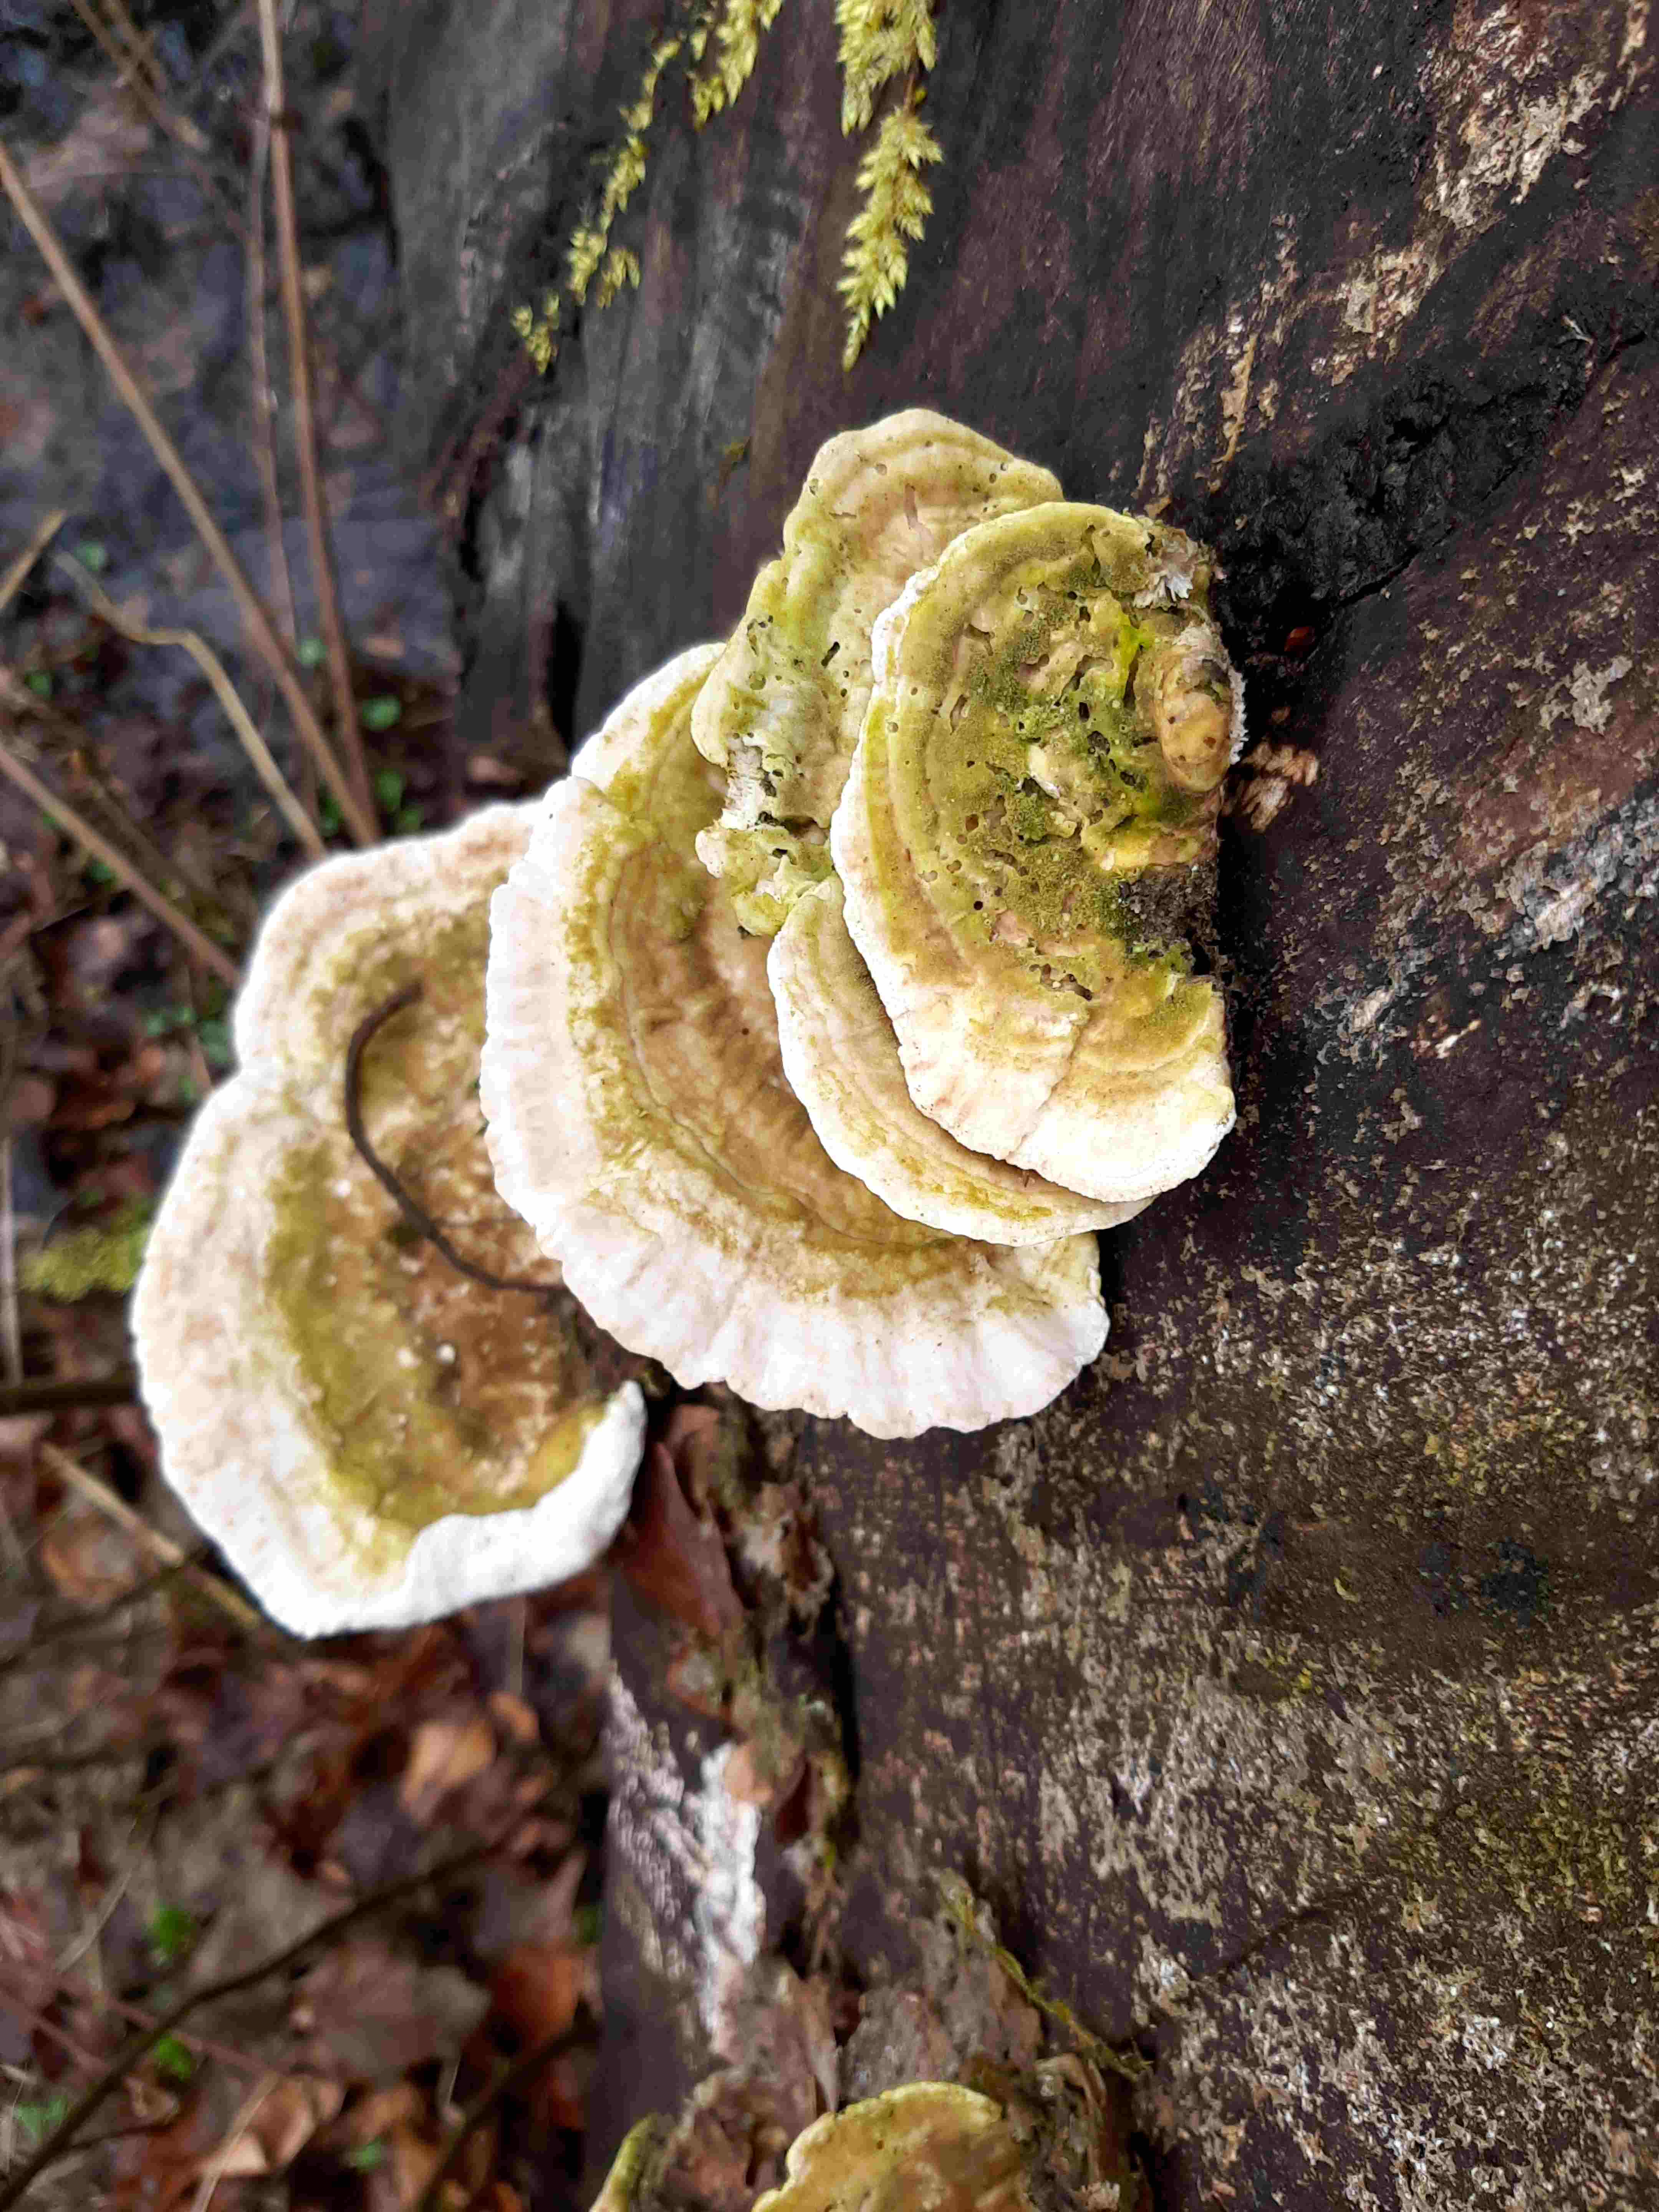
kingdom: Fungi
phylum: Basidiomycota
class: Agaricomycetes
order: Polyporales
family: Polyporaceae
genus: Trametes
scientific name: Trametes gibbosa
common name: puklet læderporesvamp
